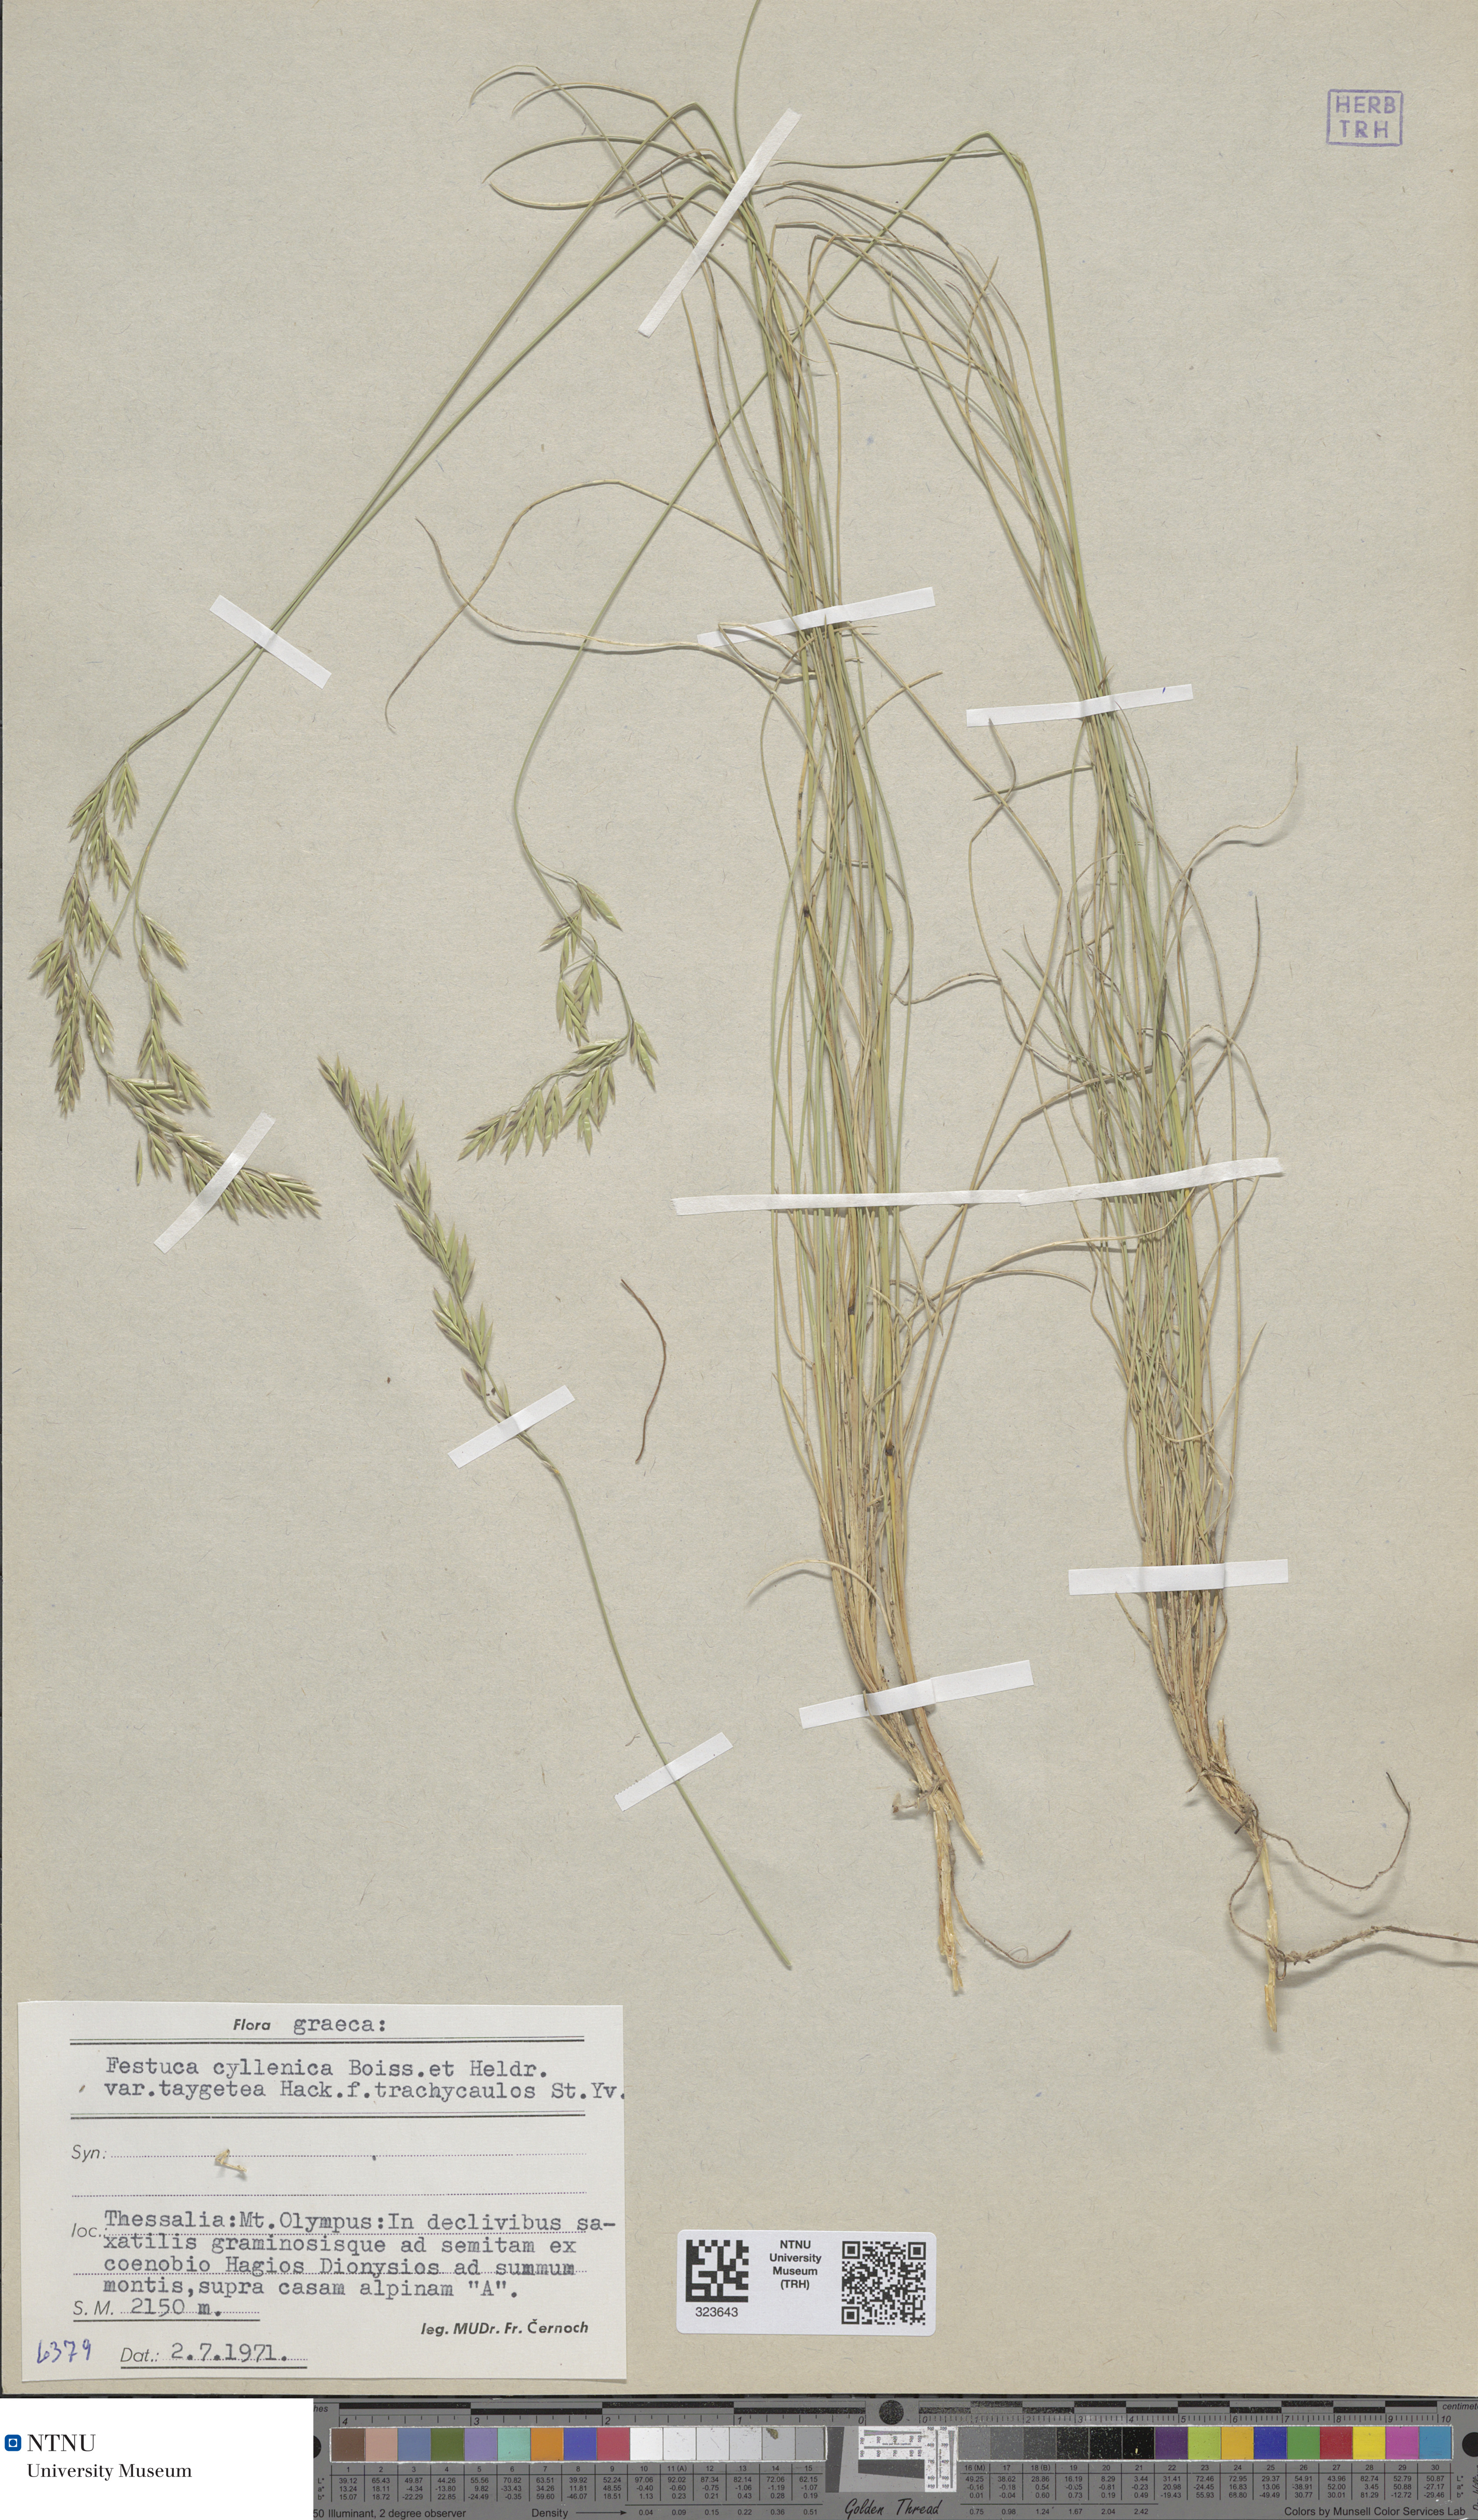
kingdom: Plantae
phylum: Tracheophyta
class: Liliopsida
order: Poales
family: Poaceae
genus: Festuca
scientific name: Festuca cyllenica
